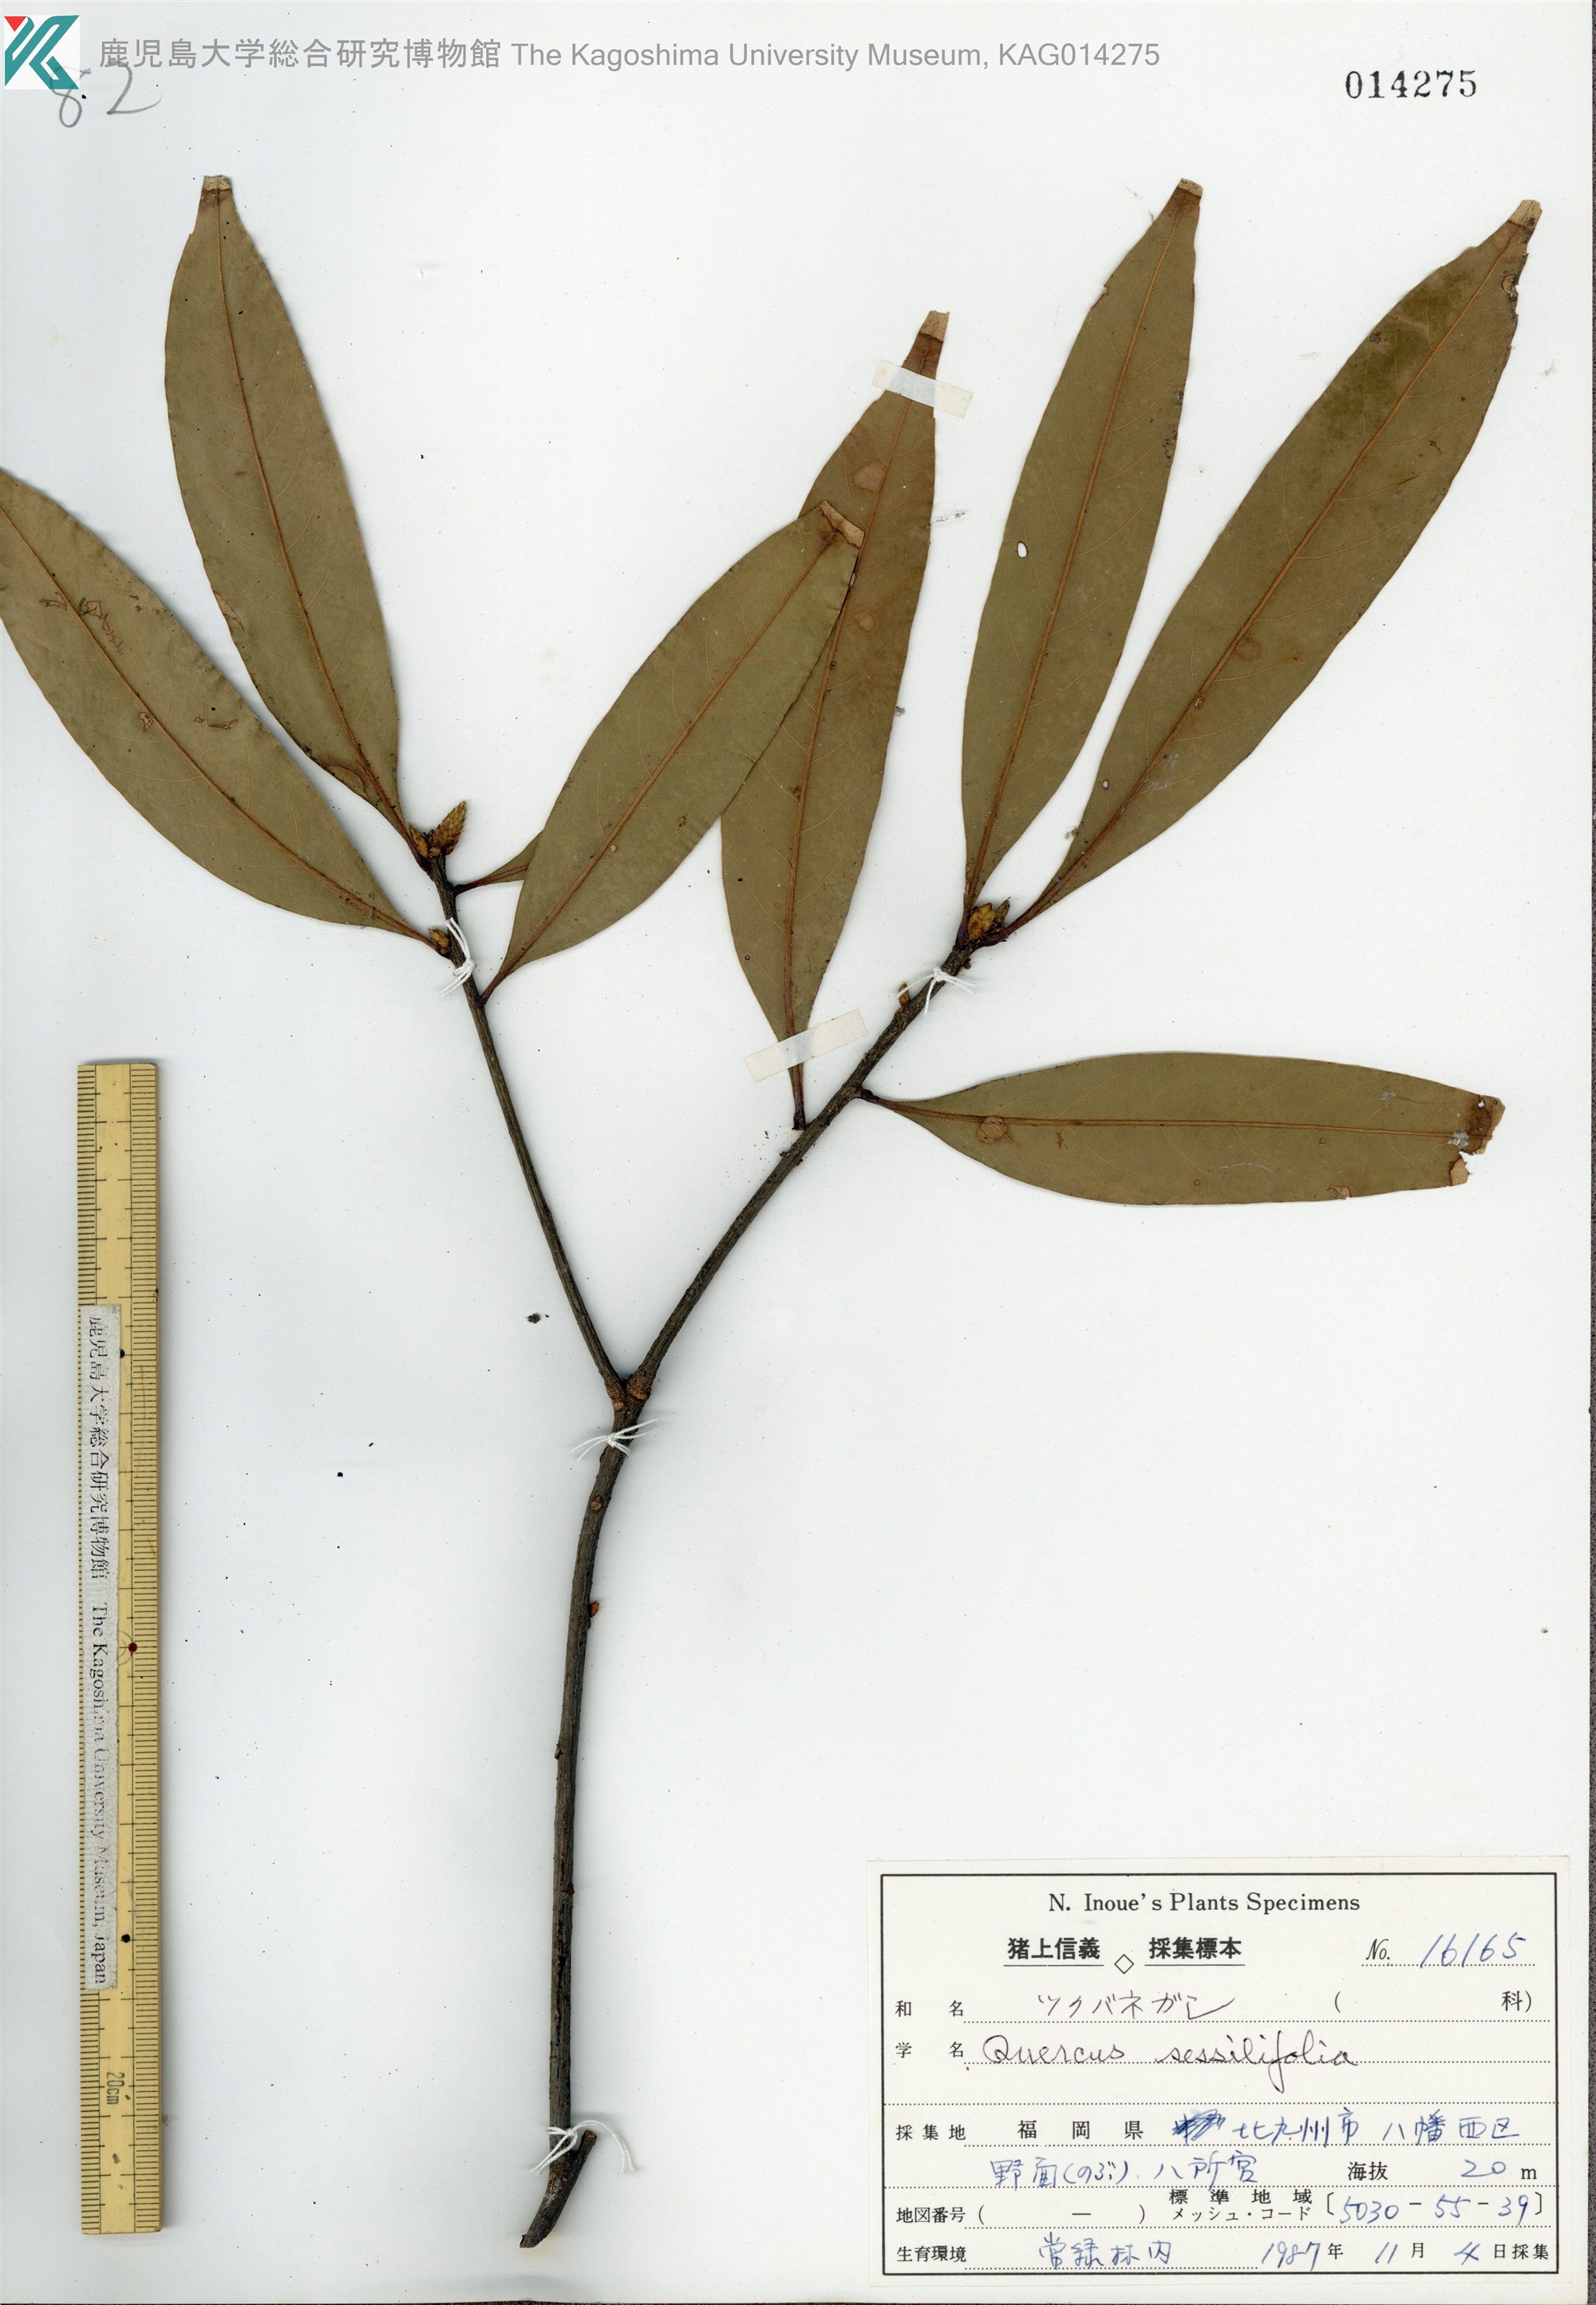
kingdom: Plantae
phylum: Tracheophyta
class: Magnoliopsida
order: Fagales
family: Fagaceae
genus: Quercus
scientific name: Quercus sessilifolia
